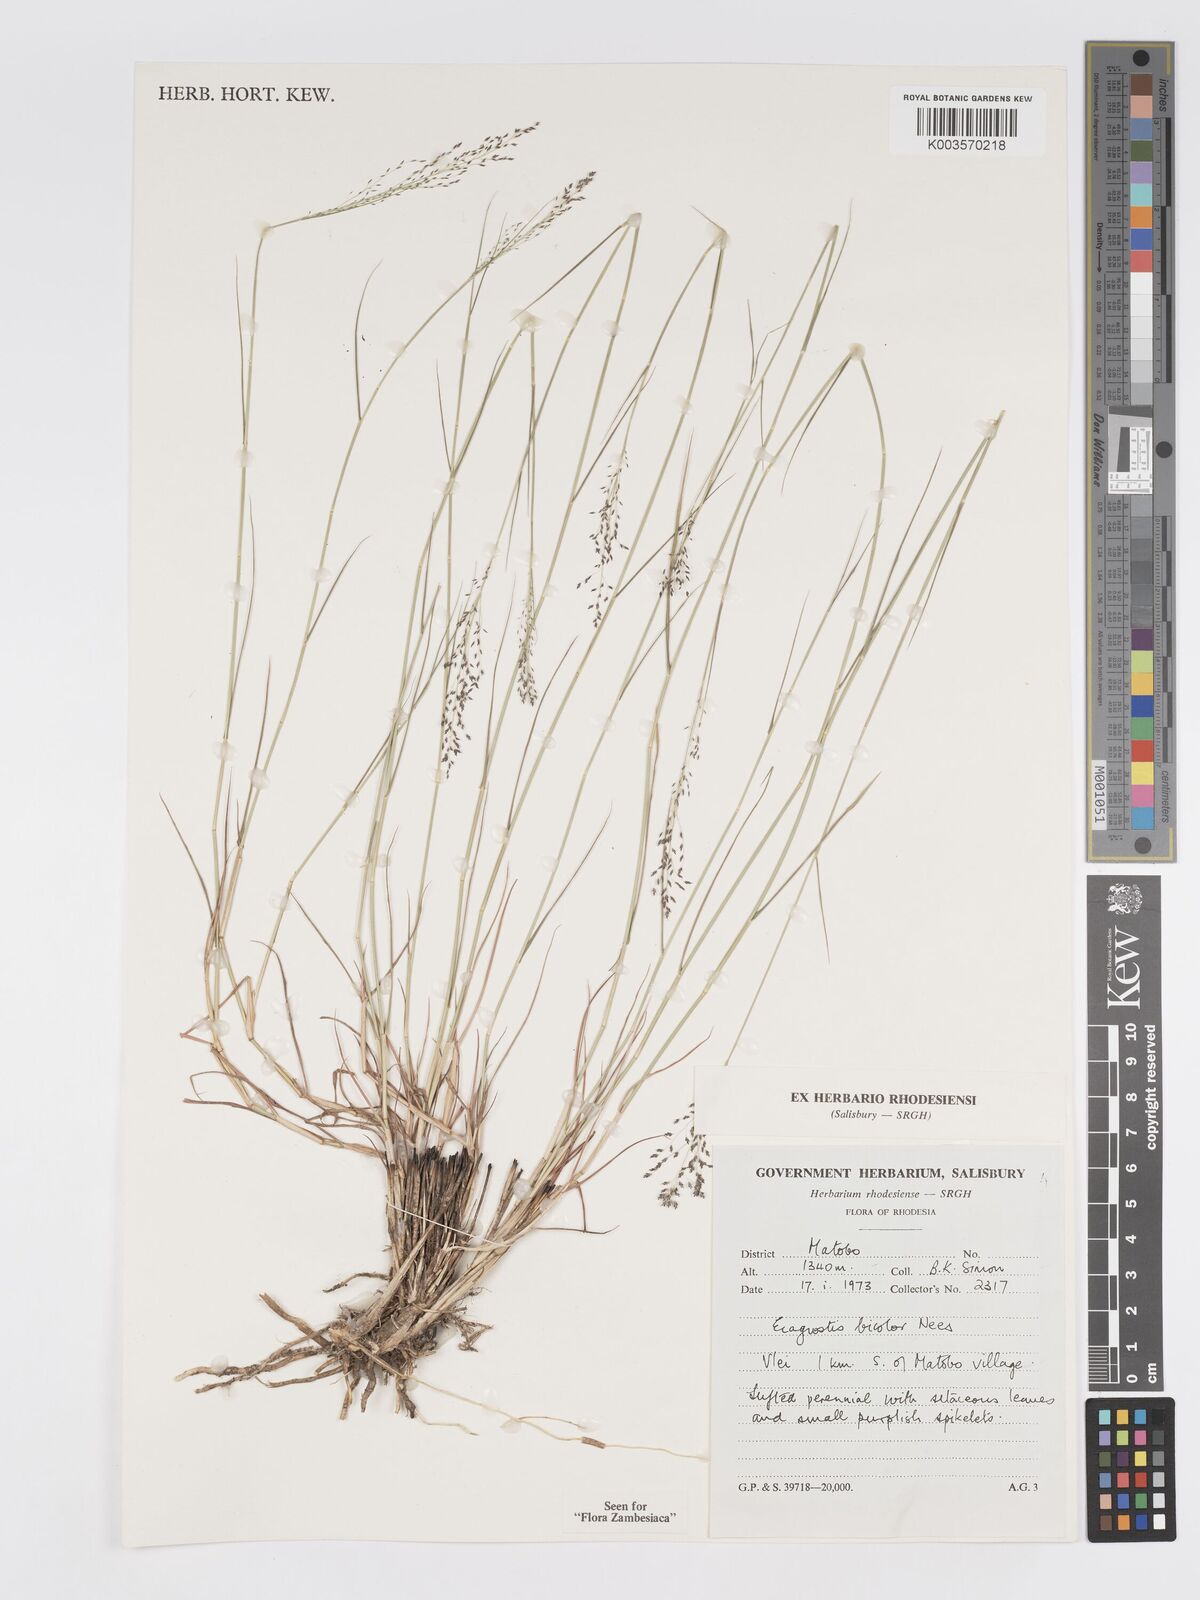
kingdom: Plantae
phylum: Tracheophyta
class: Liliopsida
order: Poales
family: Poaceae
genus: Eragrostis
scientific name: Eragrostis bicolor
